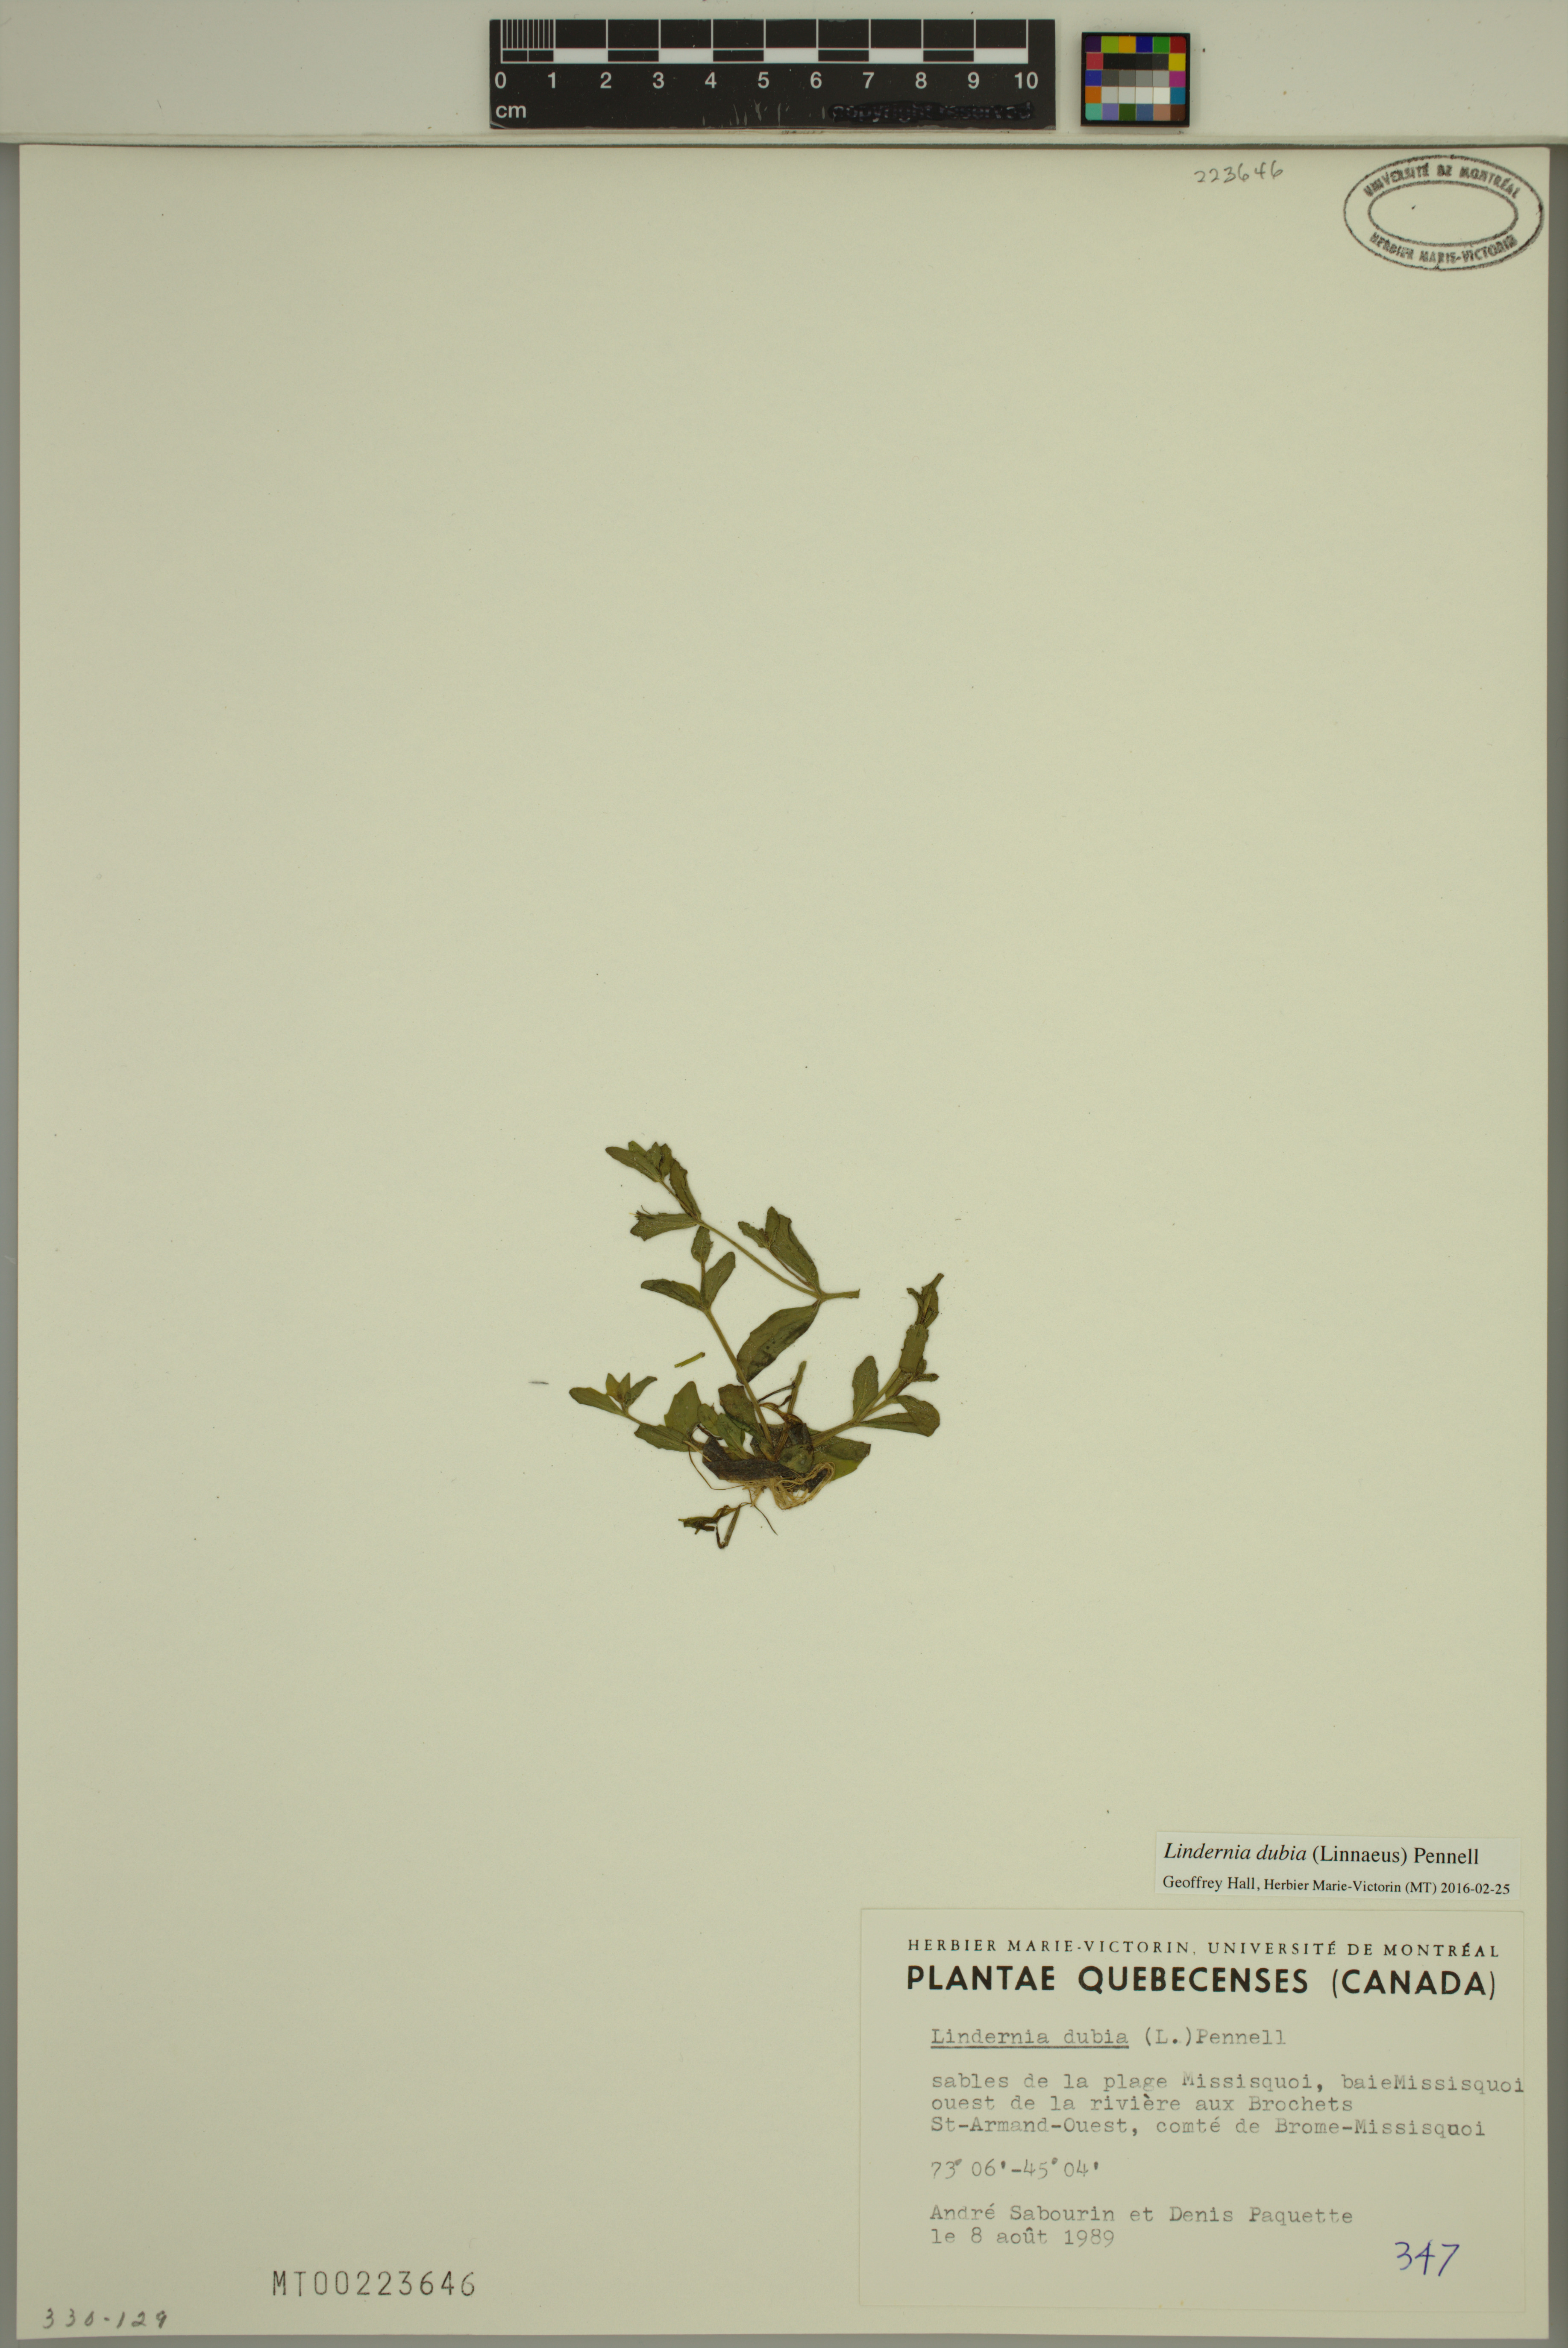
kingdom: Plantae
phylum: Tracheophyta
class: Magnoliopsida
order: Lamiales
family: Linderniaceae
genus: Lindernia
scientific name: Lindernia dubia
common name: Annual false pimpernel
